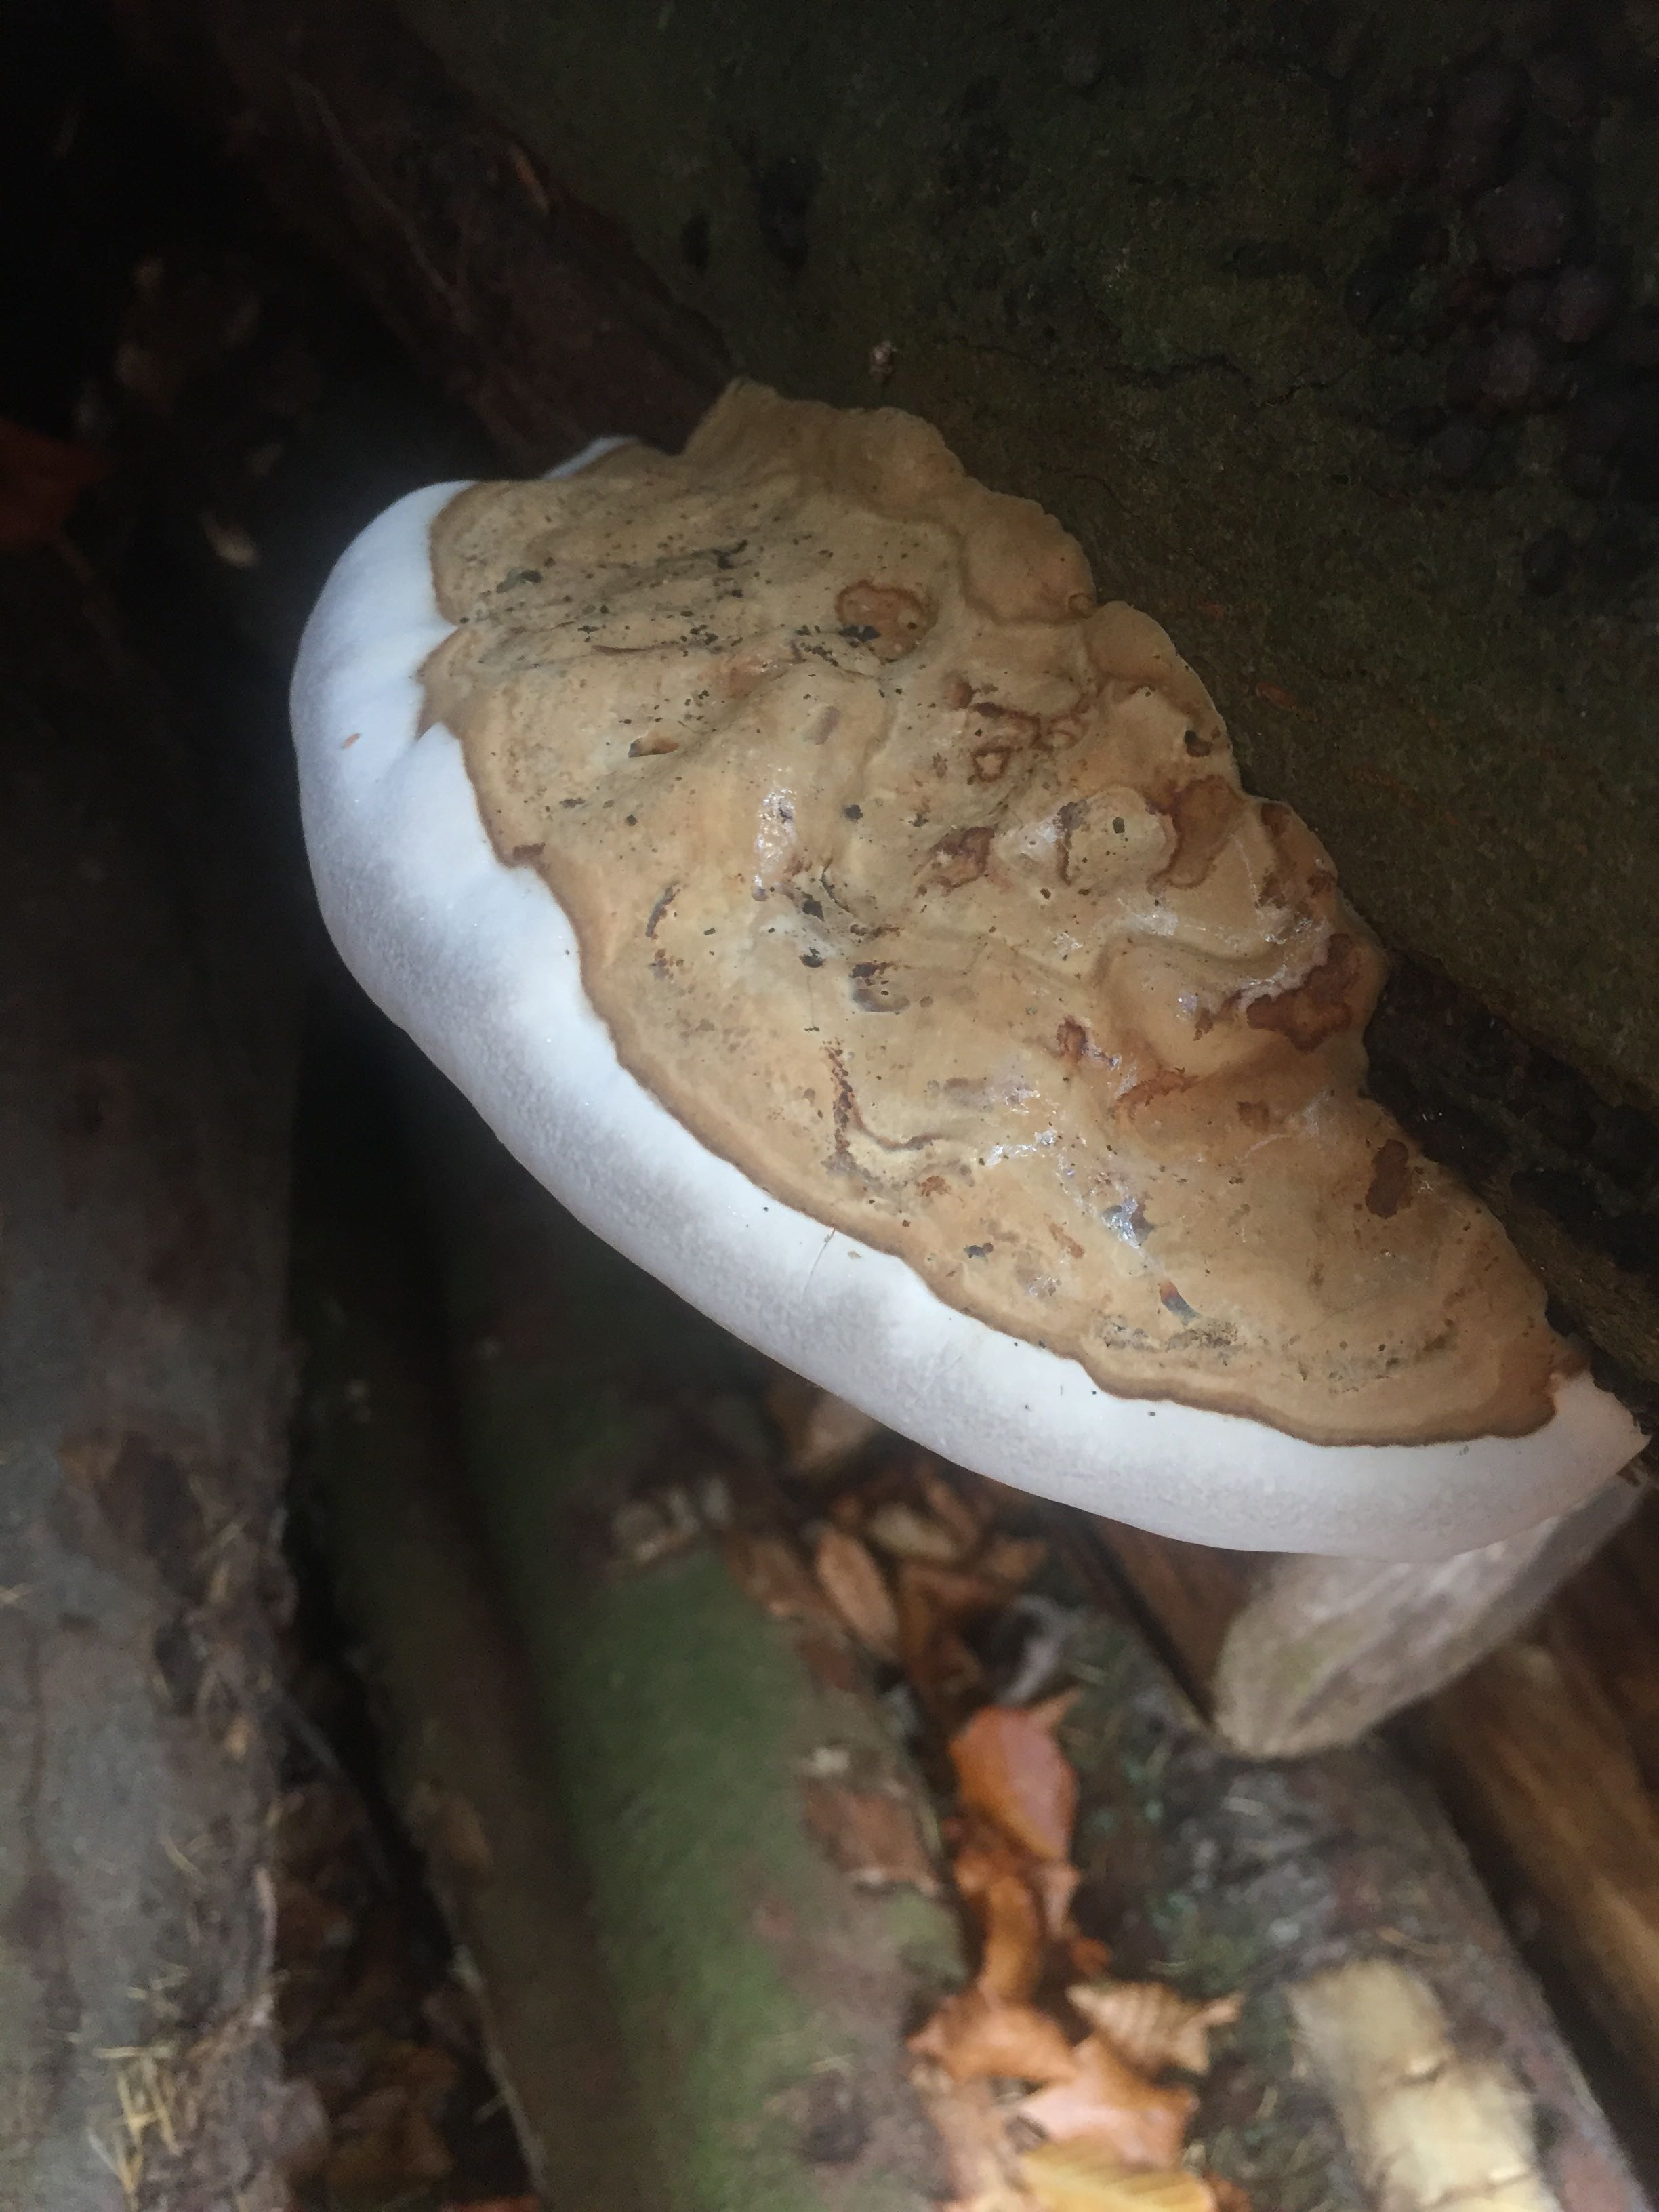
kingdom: Fungi
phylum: Basidiomycota
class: Agaricomycetes
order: Polyporales
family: Polyporaceae
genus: Ganoderma
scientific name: Ganoderma applanatum
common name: flad lakporesvamp
